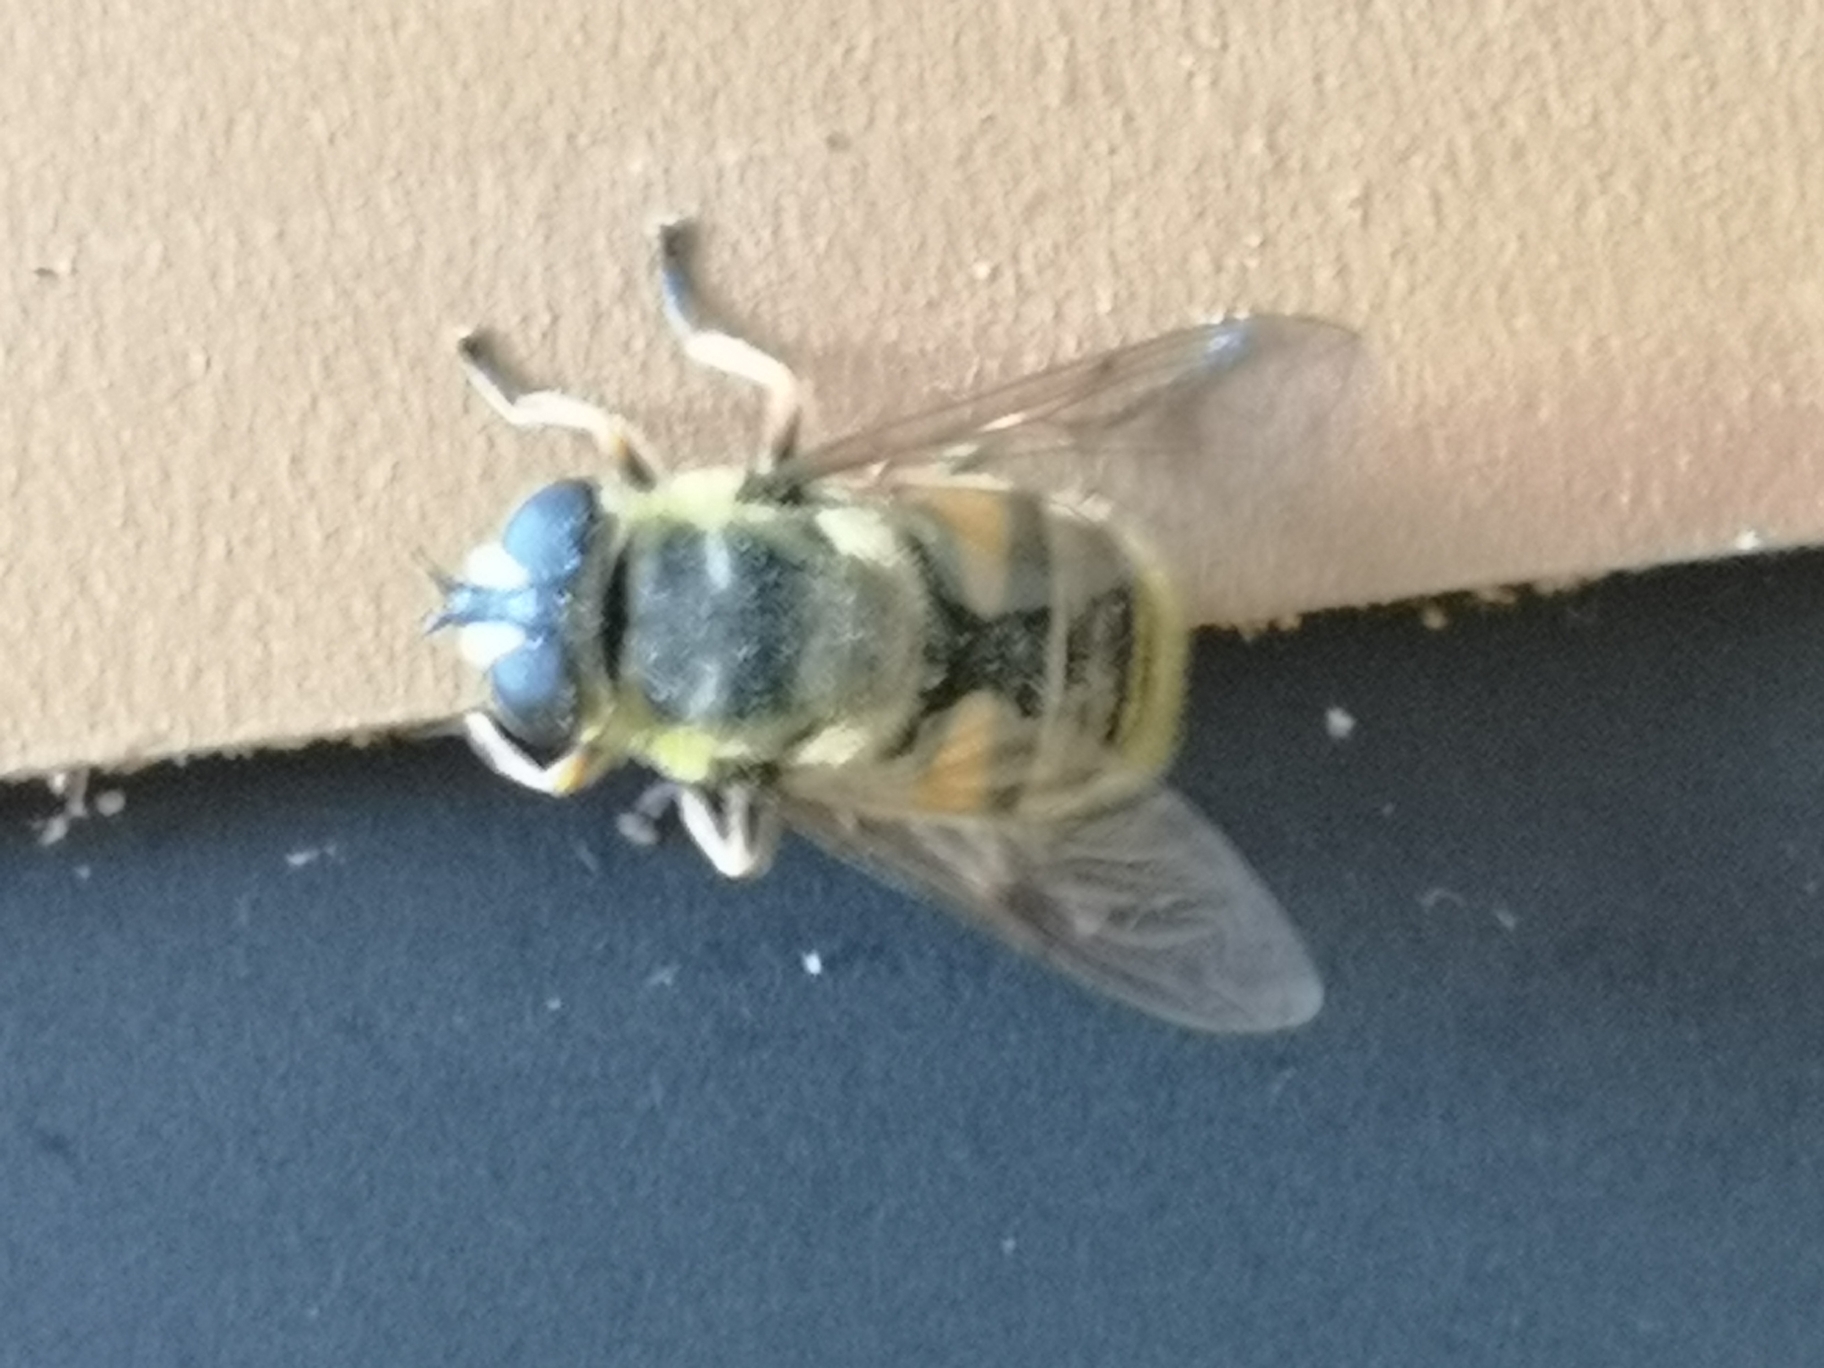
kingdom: Animalia
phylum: Arthropoda
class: Insecta
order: Diptera
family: Syrphidae
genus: Myathropa
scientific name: Myathropa florea
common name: Dødningehoved-svirreflue
